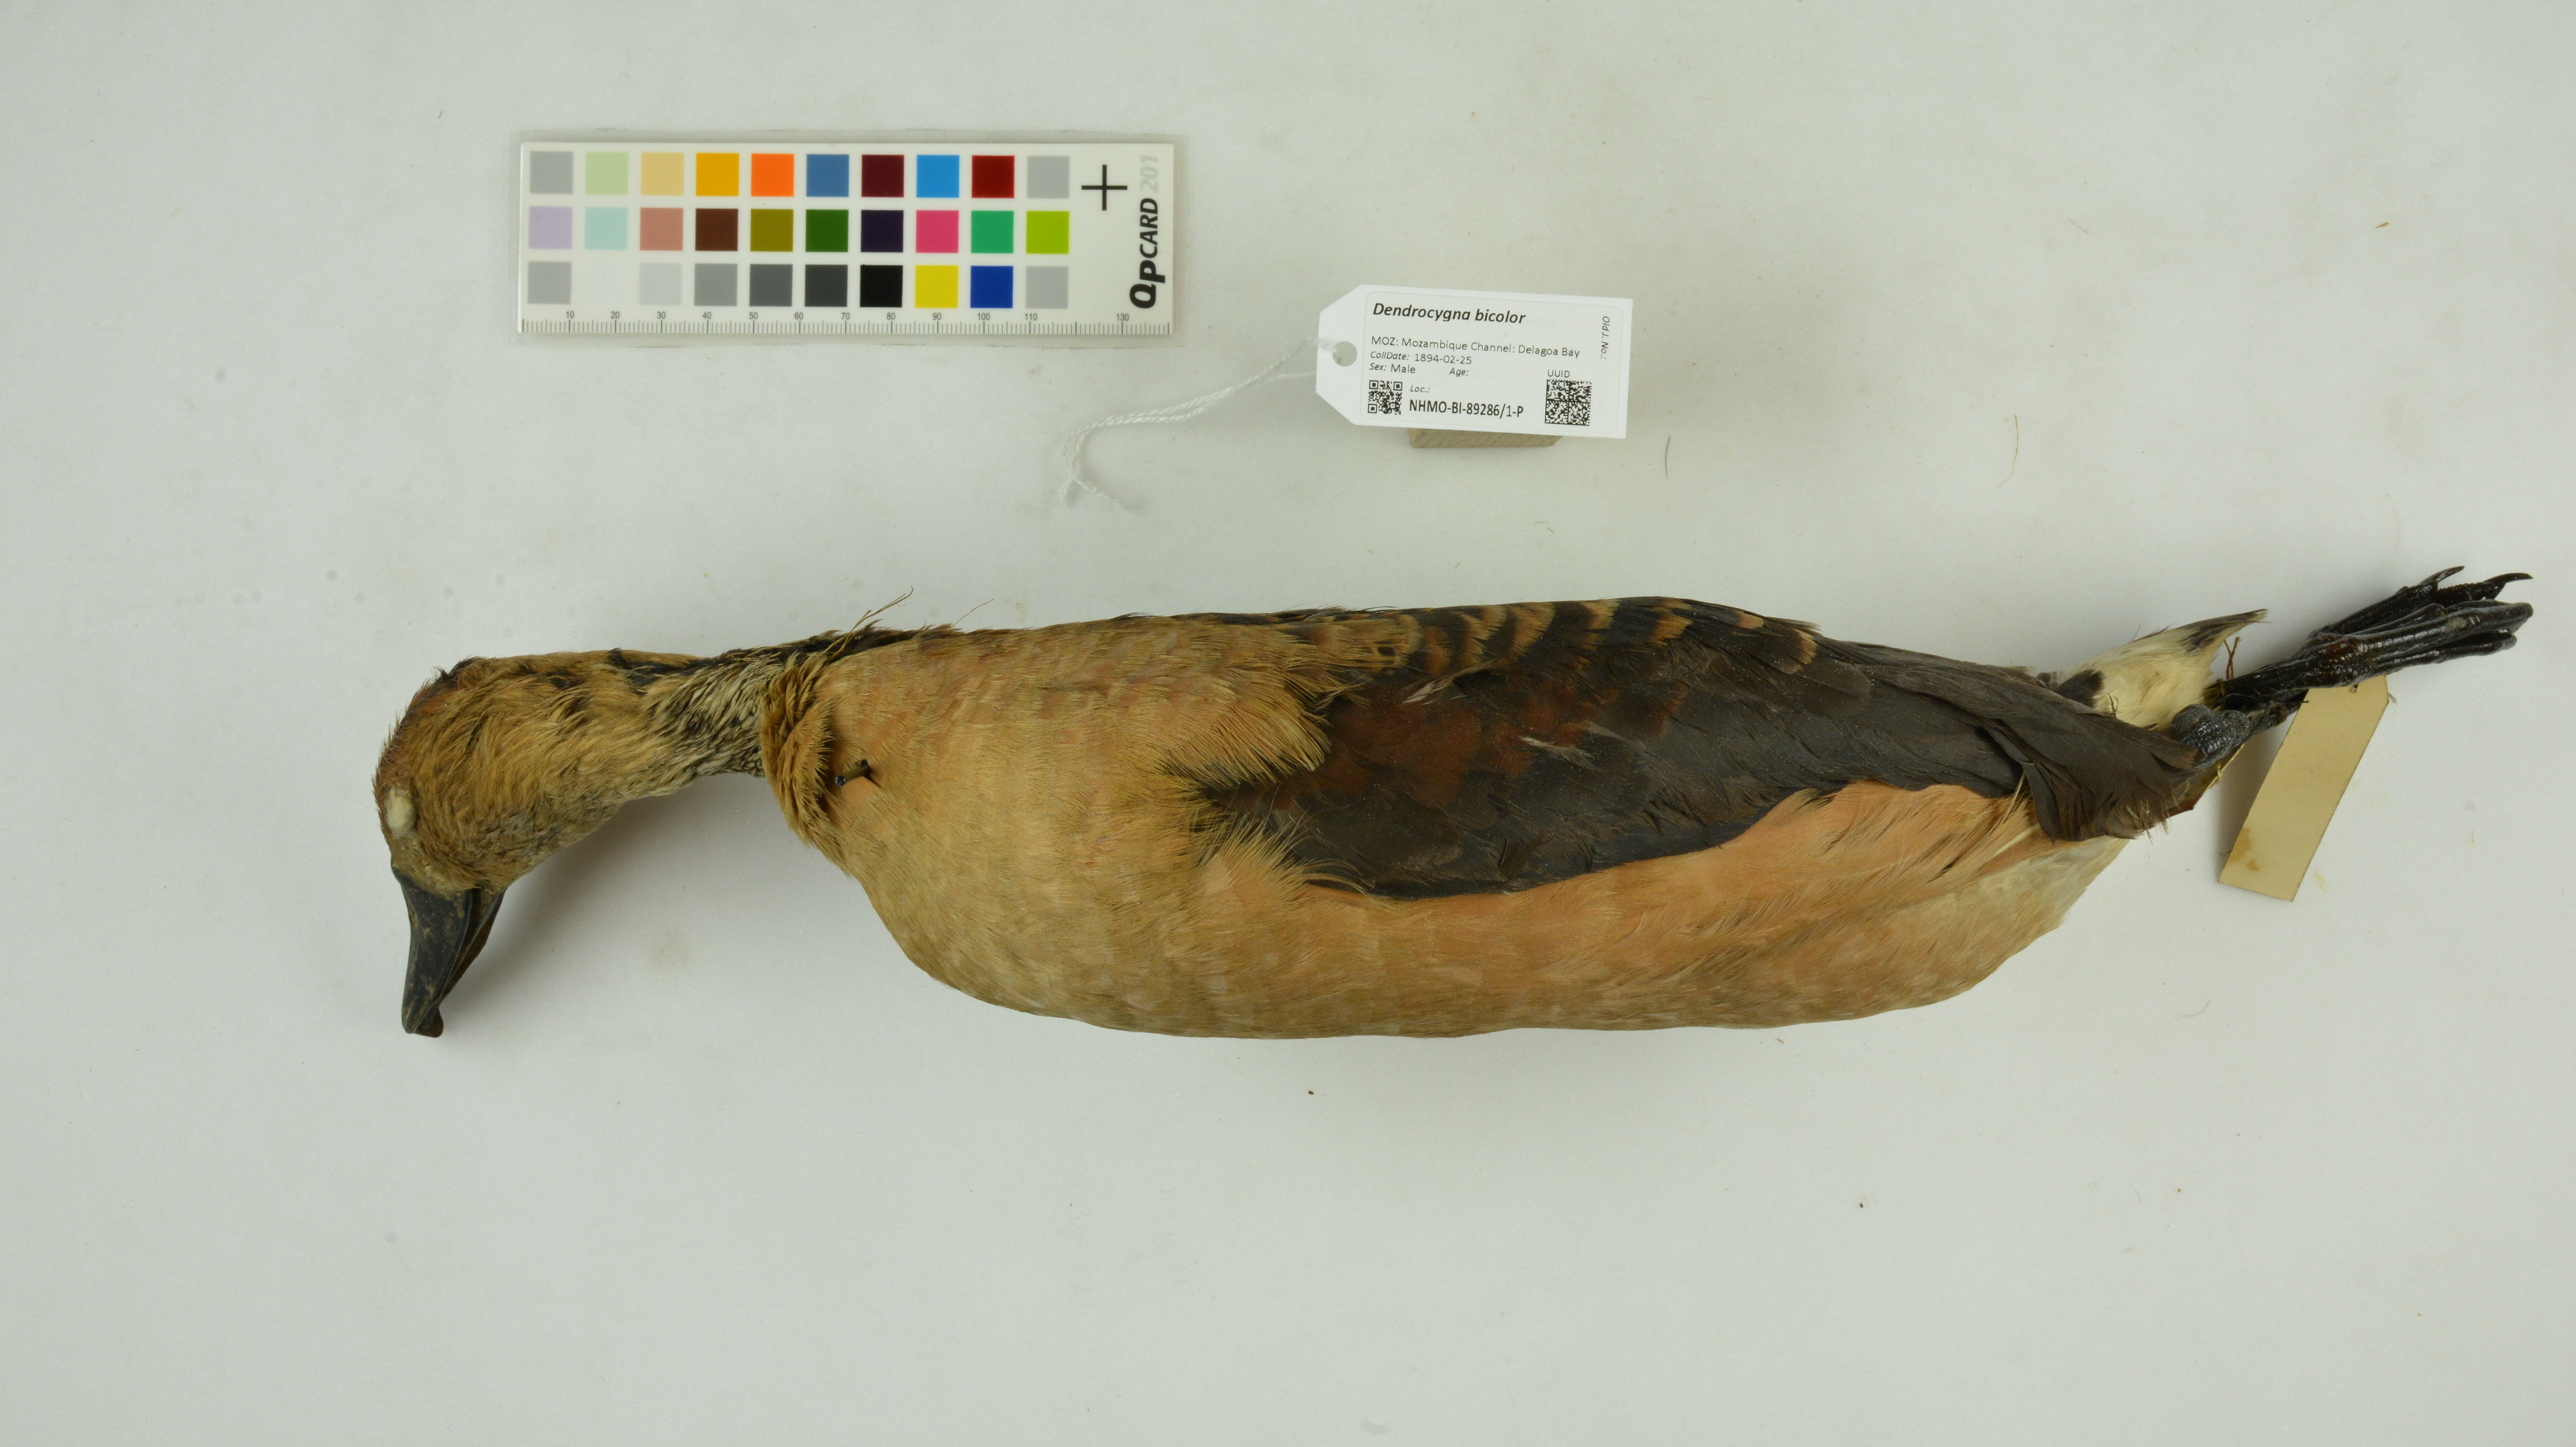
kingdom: Animalia
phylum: Chordata
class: Aves
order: Anseriformes
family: Anatidae
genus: Dendrocygna
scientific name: Dendrocygna bicolor
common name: Fulvous whistling duck
